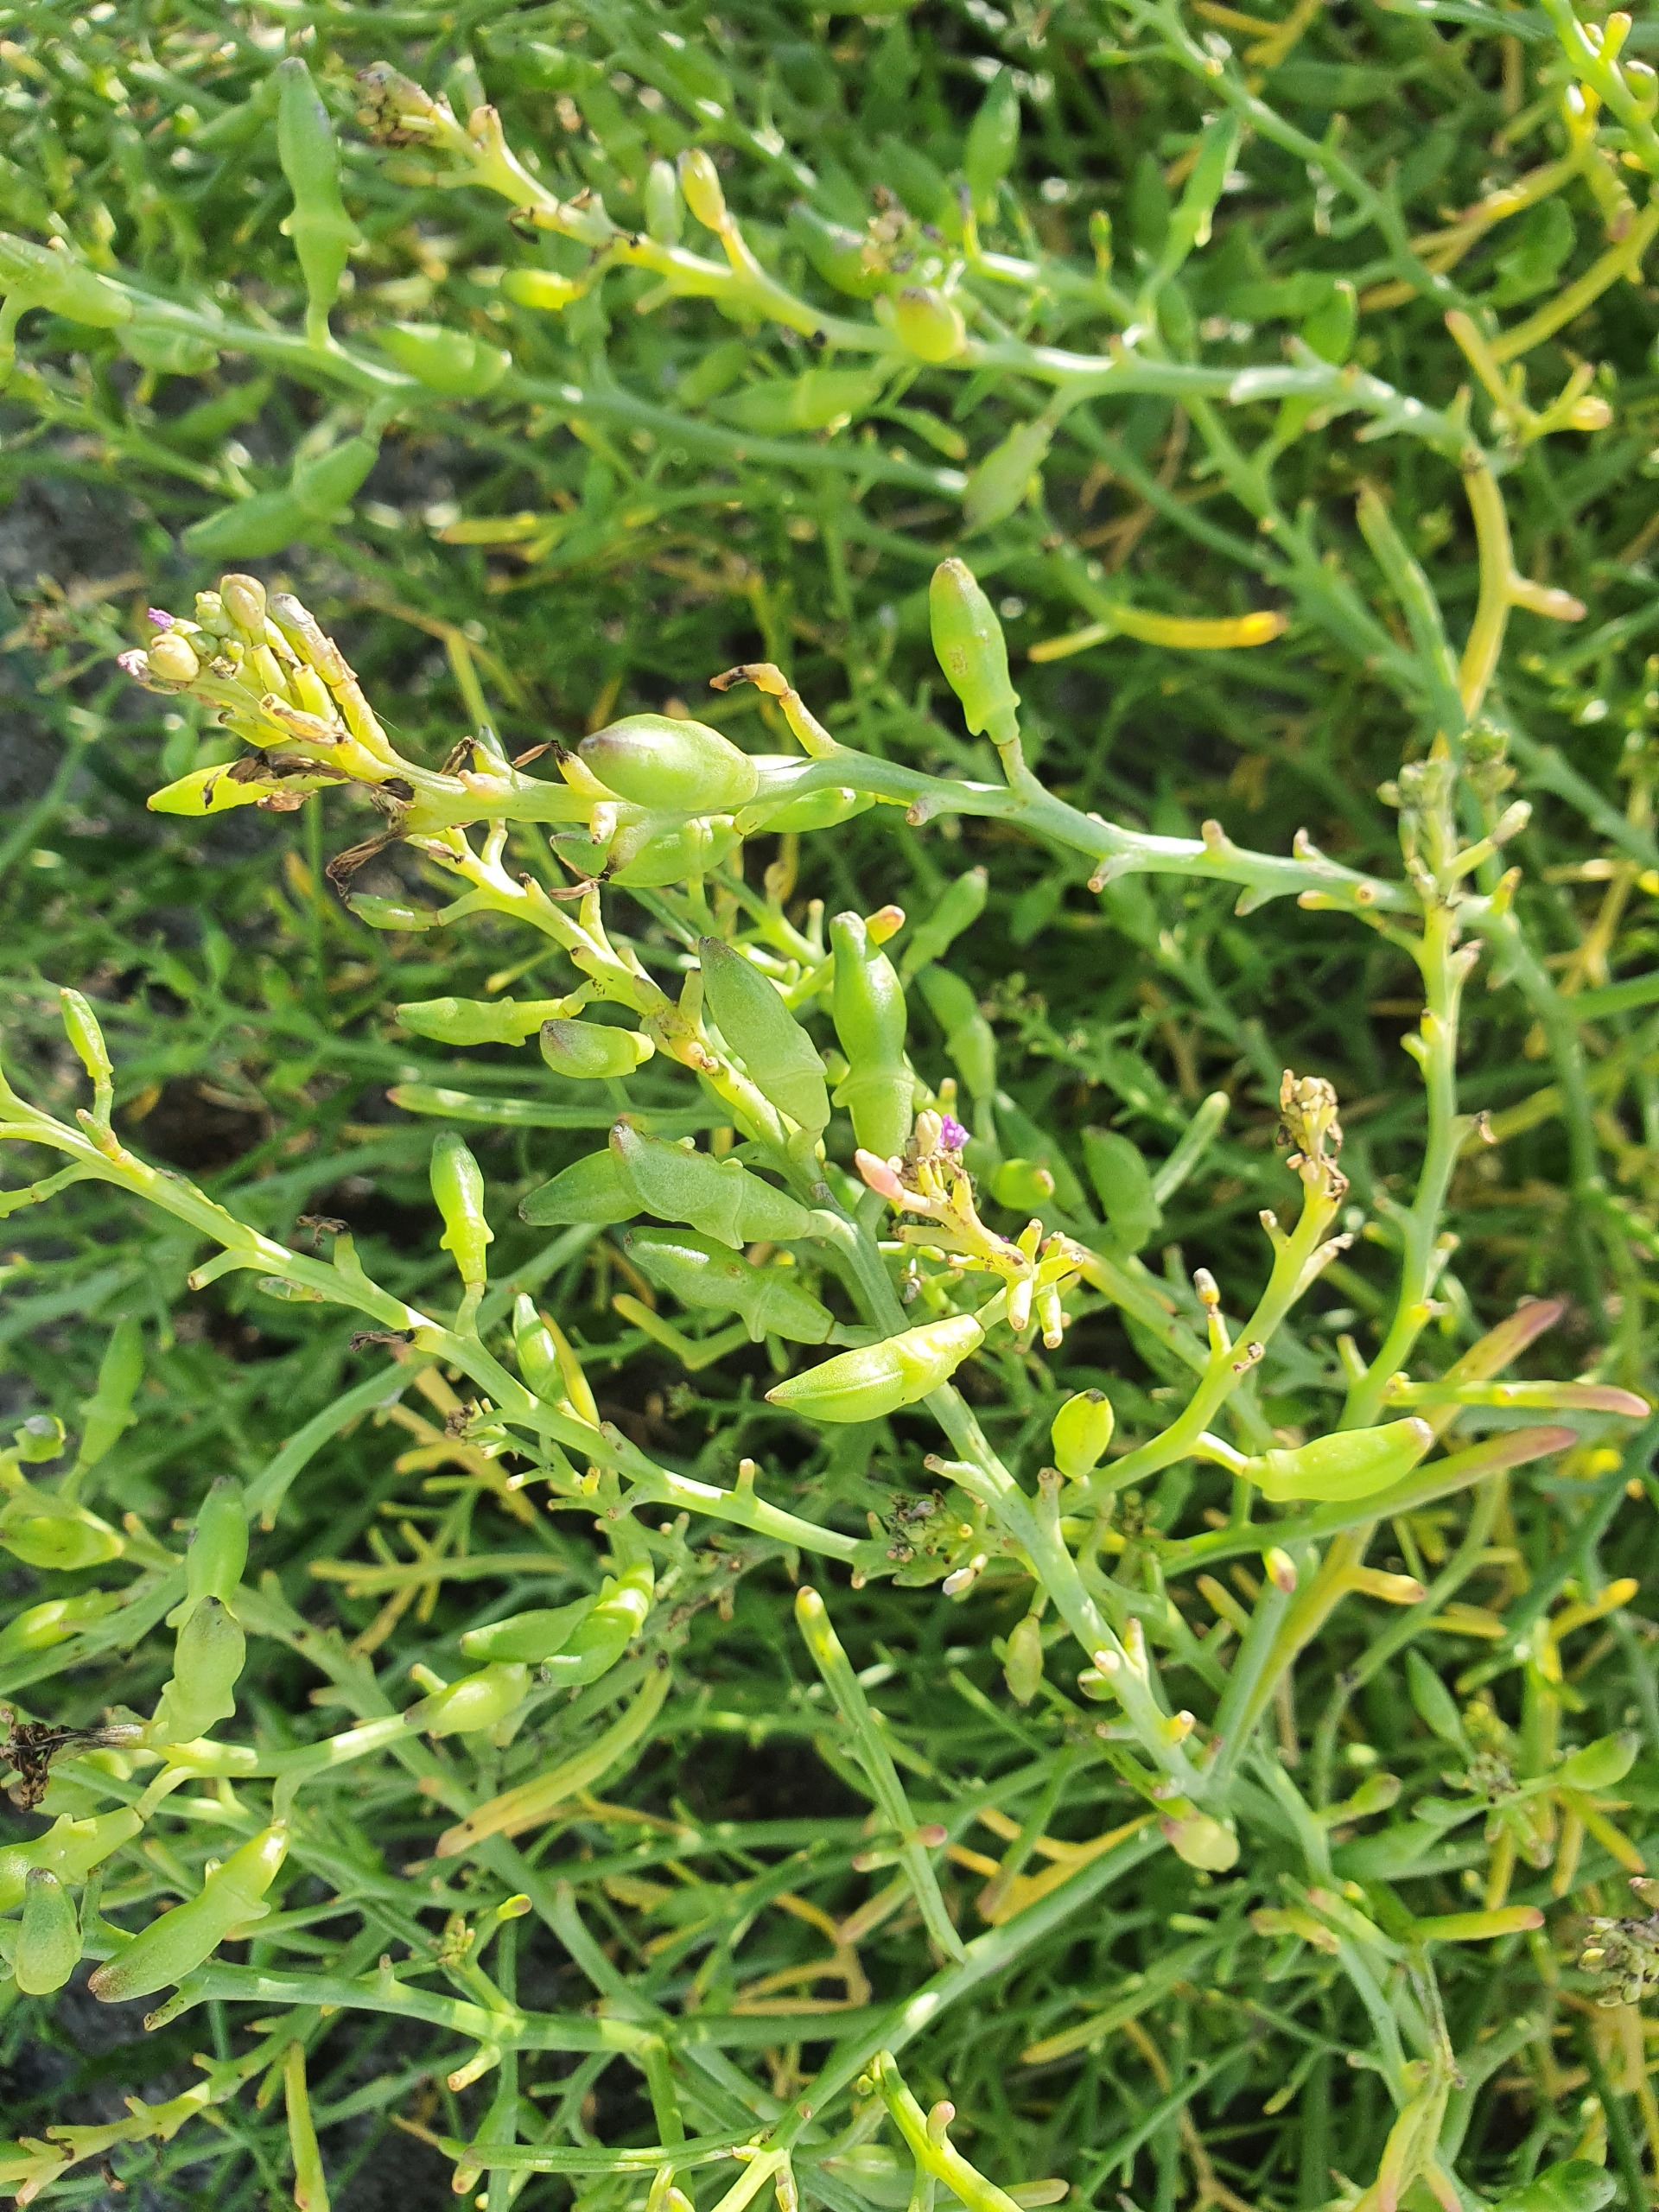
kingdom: Plantae
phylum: Tracheophyta
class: Magnoliopsida
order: Brassicales
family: Brassicaceae
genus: Cakile
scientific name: Cakile maritima
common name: Strandsennep
